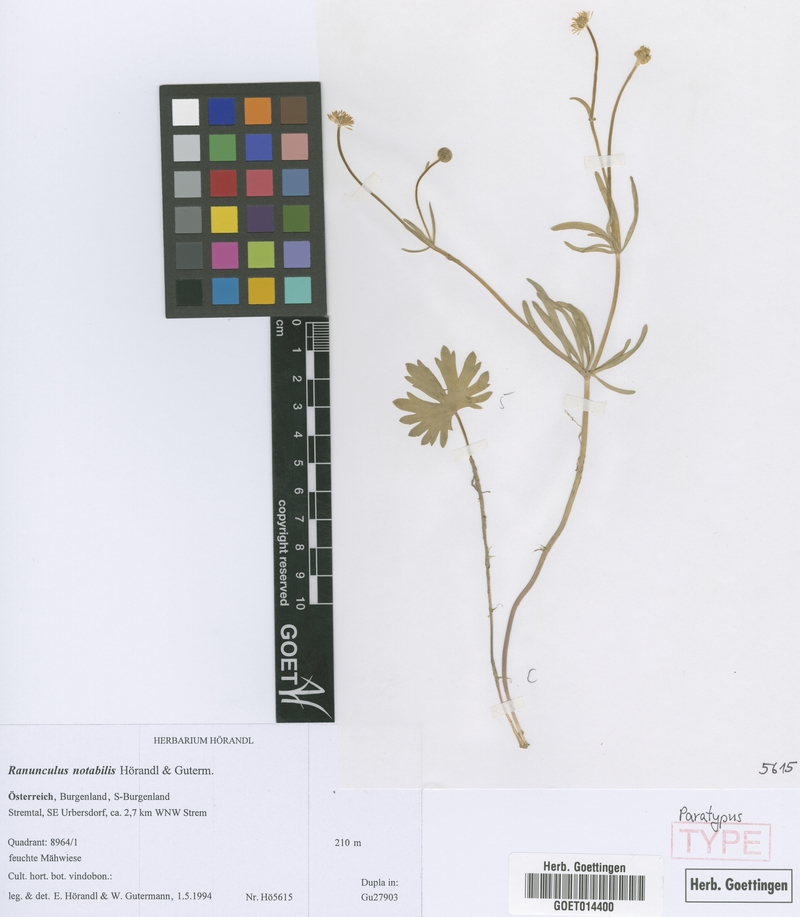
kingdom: Plantae
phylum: Tracheophyta
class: Magnoliopsida
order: Ranunculales
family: Ranunculaceae
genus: Ranunculus
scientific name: Ranunculus notabilis
